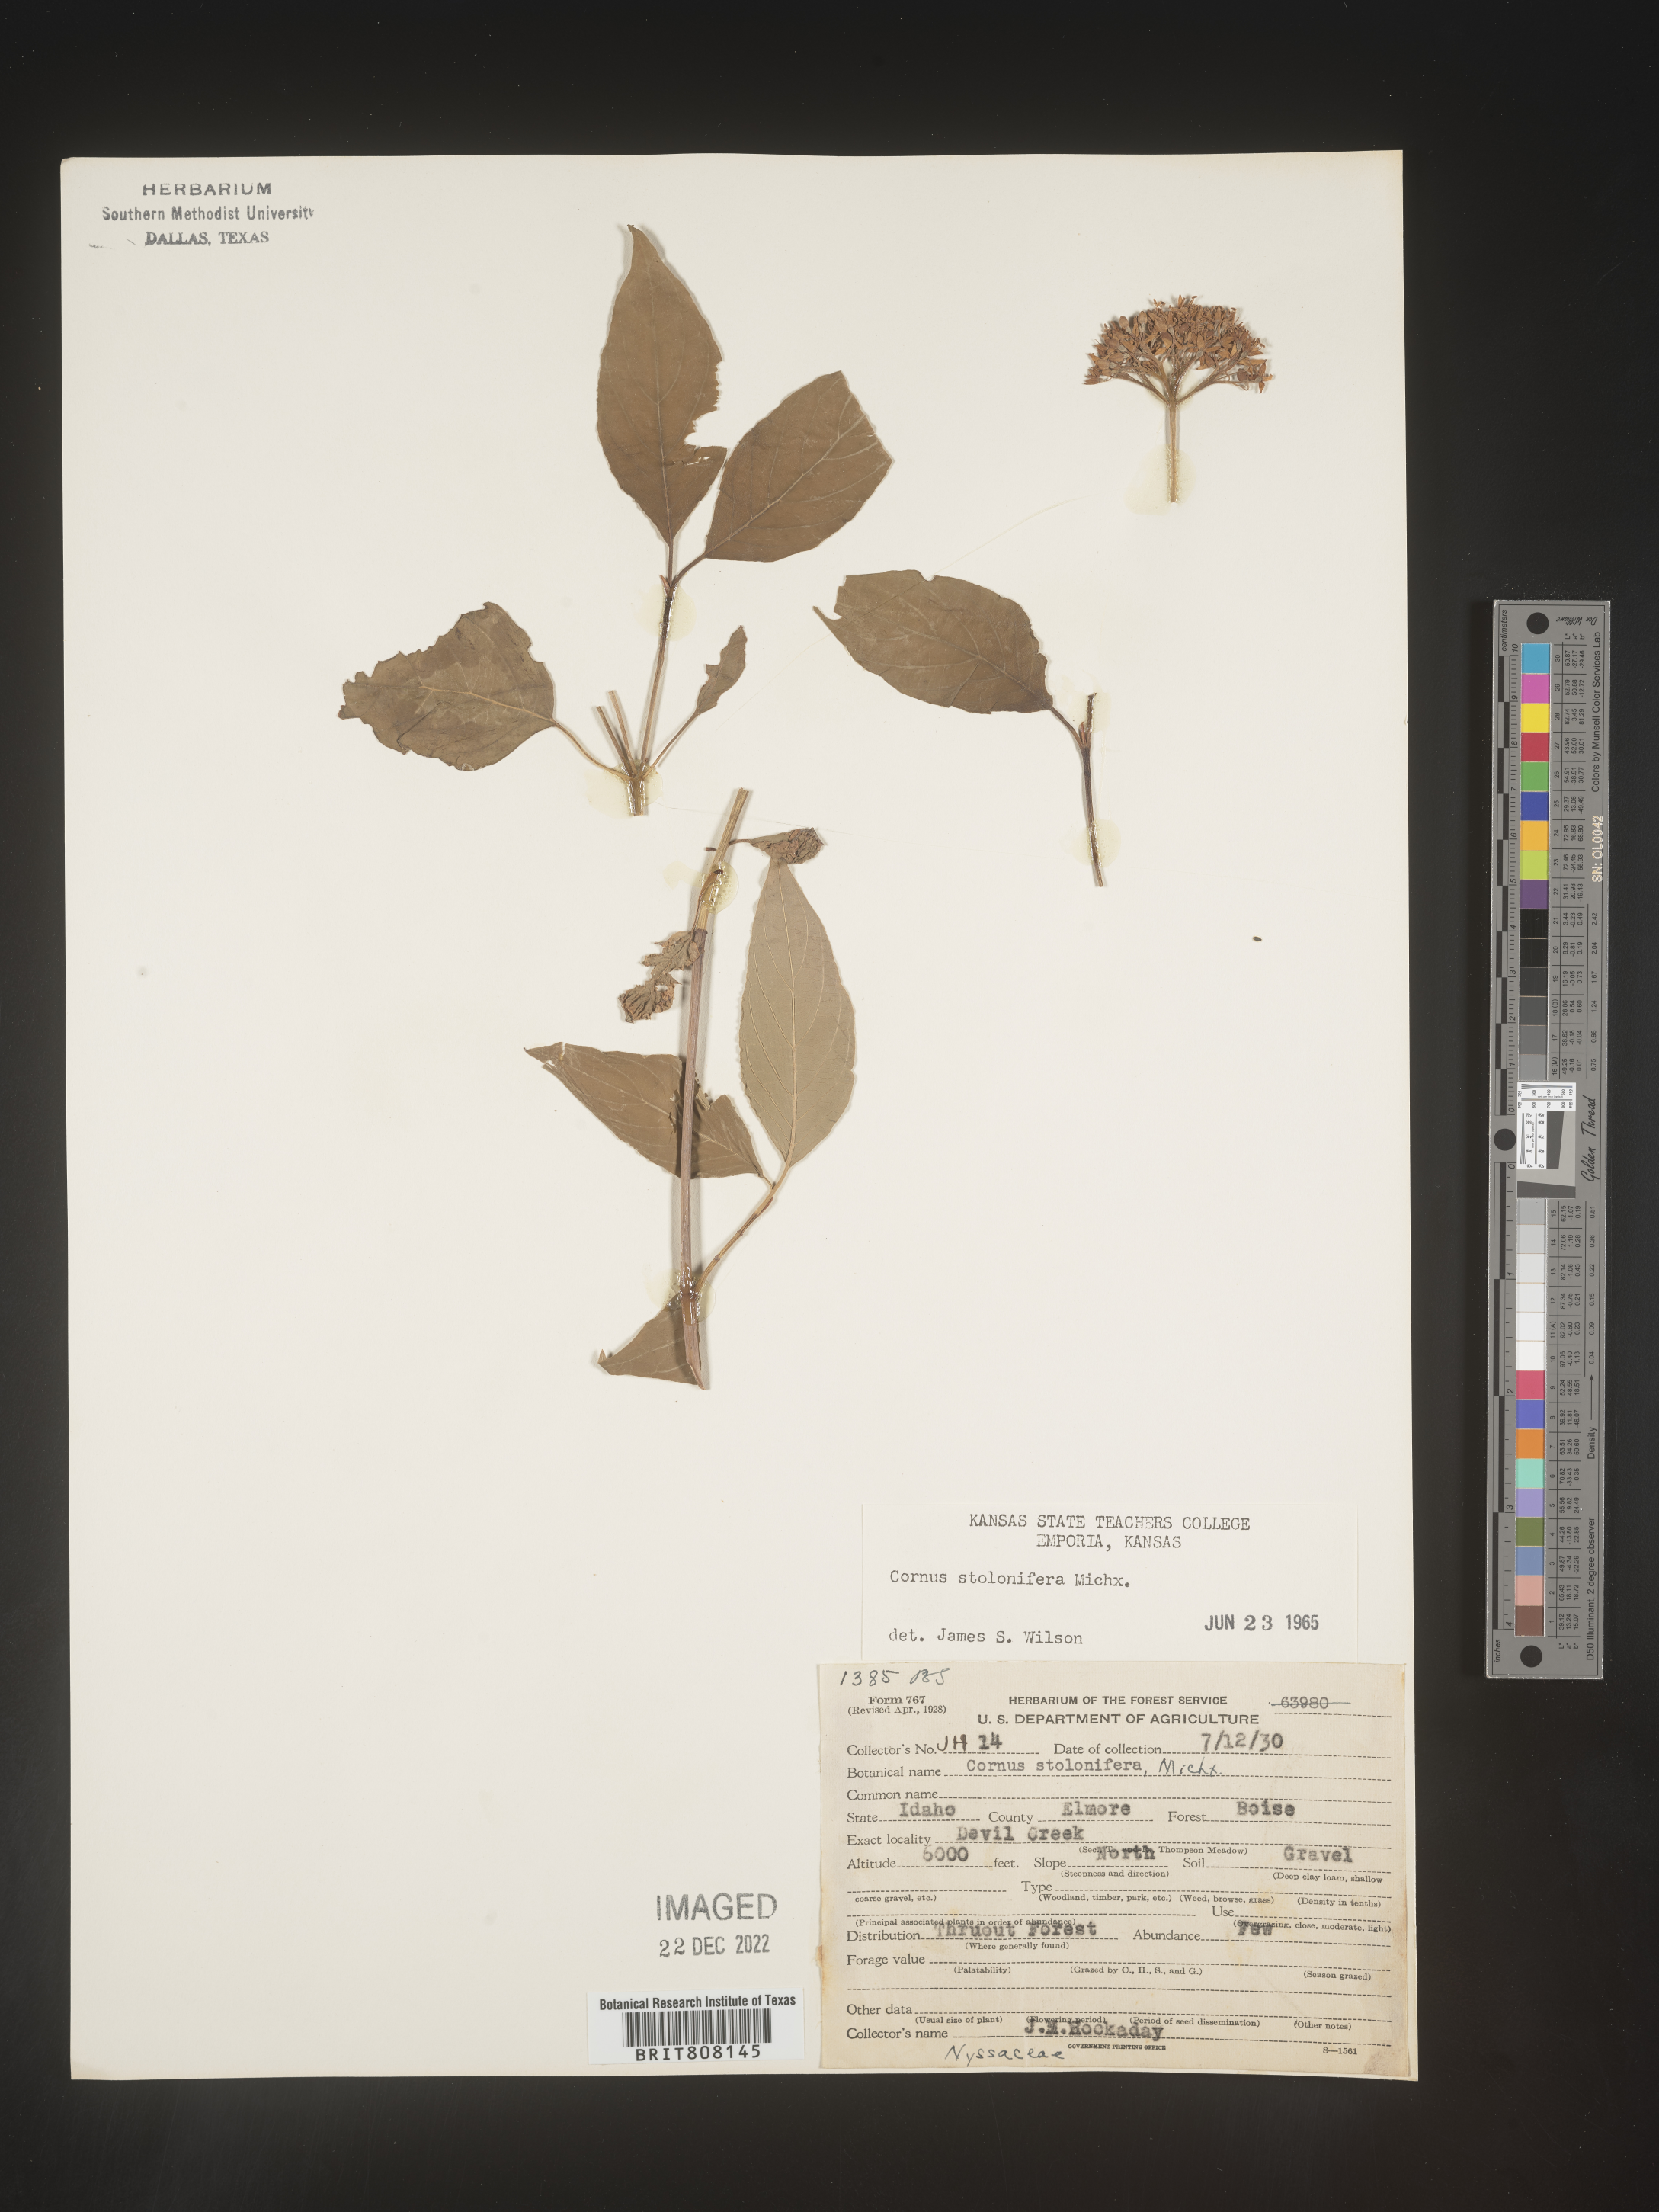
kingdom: Plantae
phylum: Tracheophyta
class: Magnoliopsida
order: Cornales
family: Cornaceae
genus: Cornus
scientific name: Cornus sericea
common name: Red-osier dogwood
